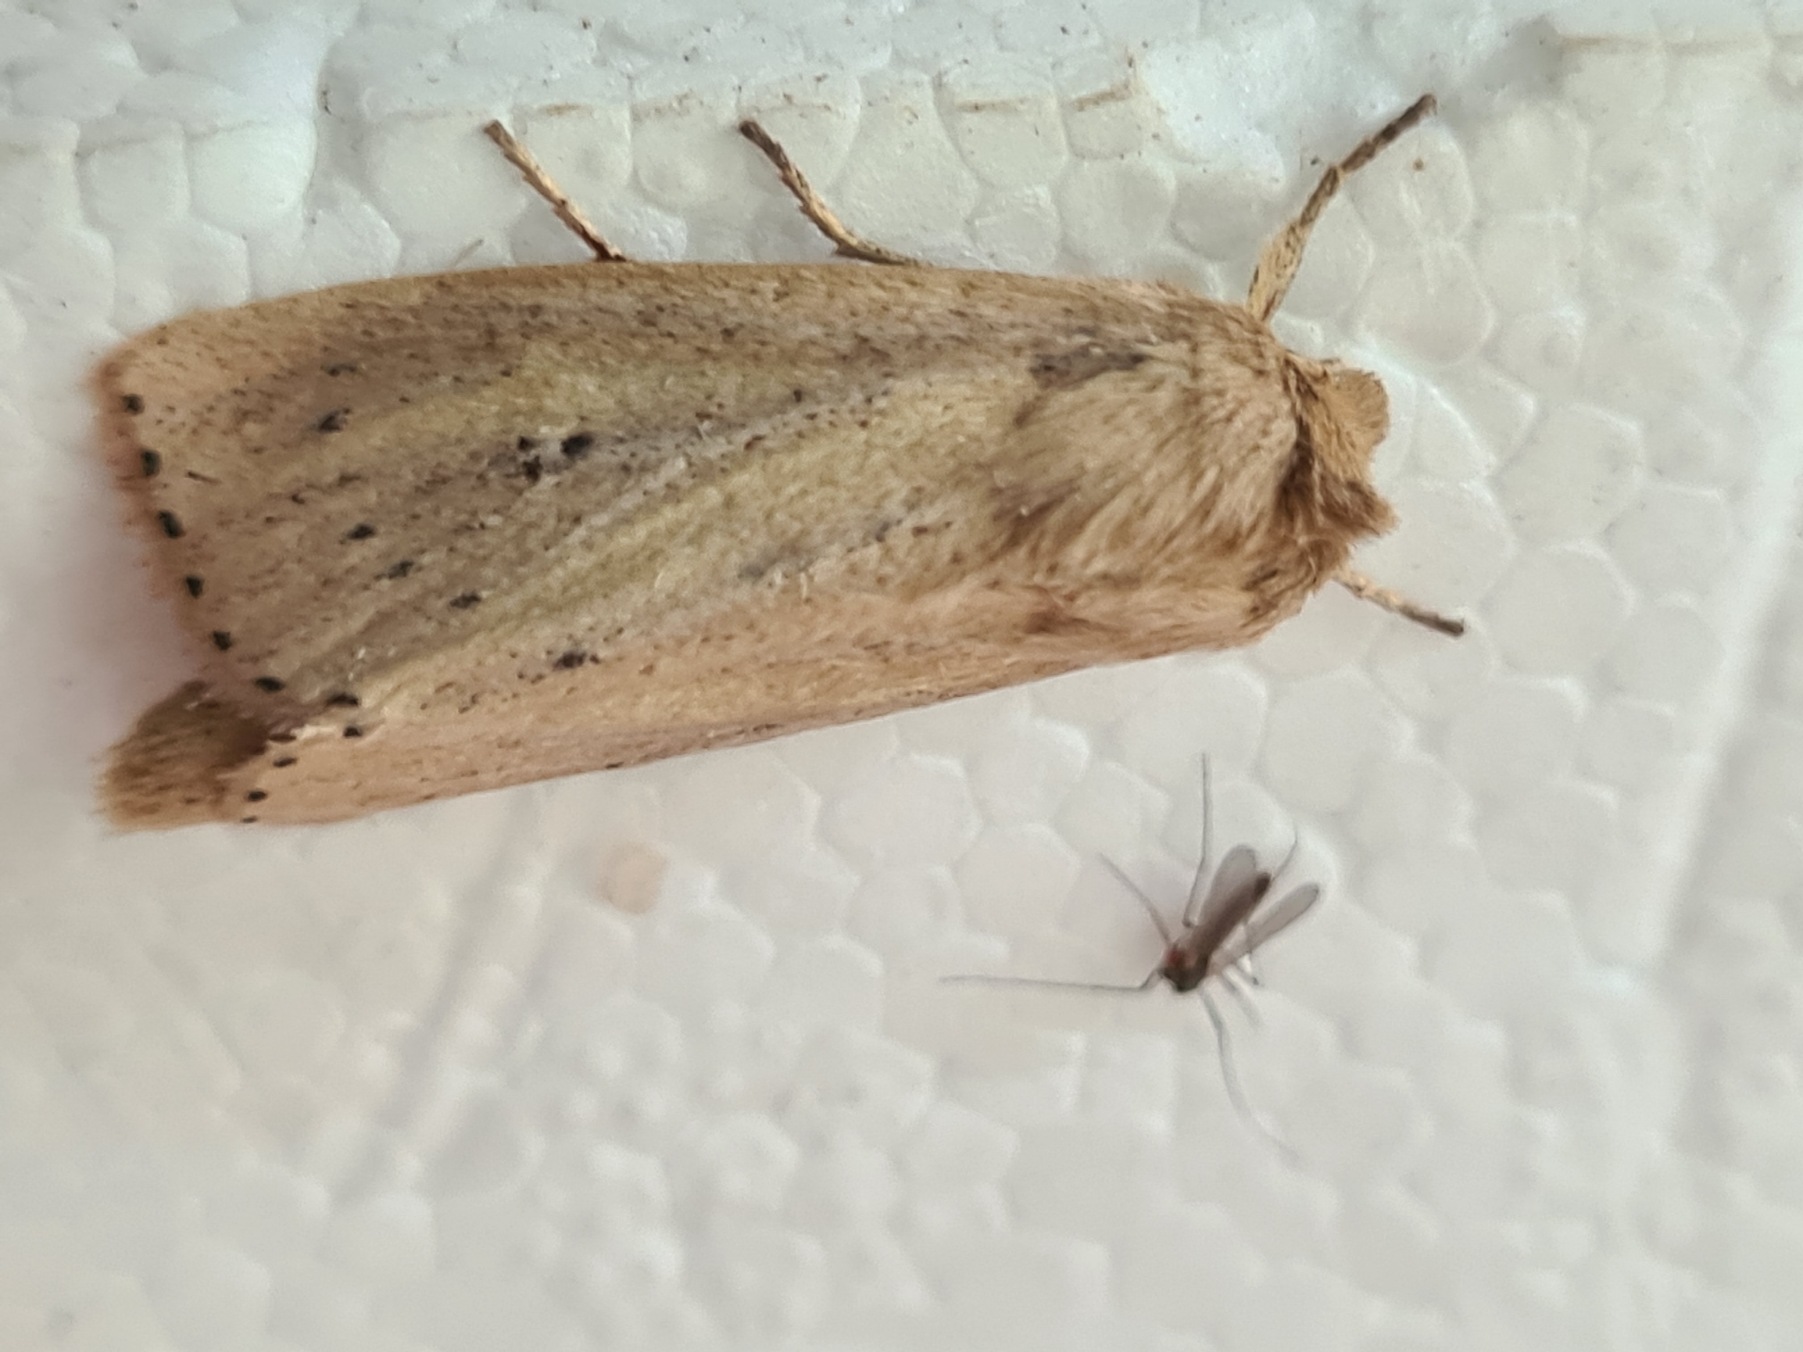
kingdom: Animalia
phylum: Arthropoda
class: Insecta
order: Lepidoptera
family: Noctuidae
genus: Globia
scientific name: Globia sparganii
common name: Sømprikket stængelborer
